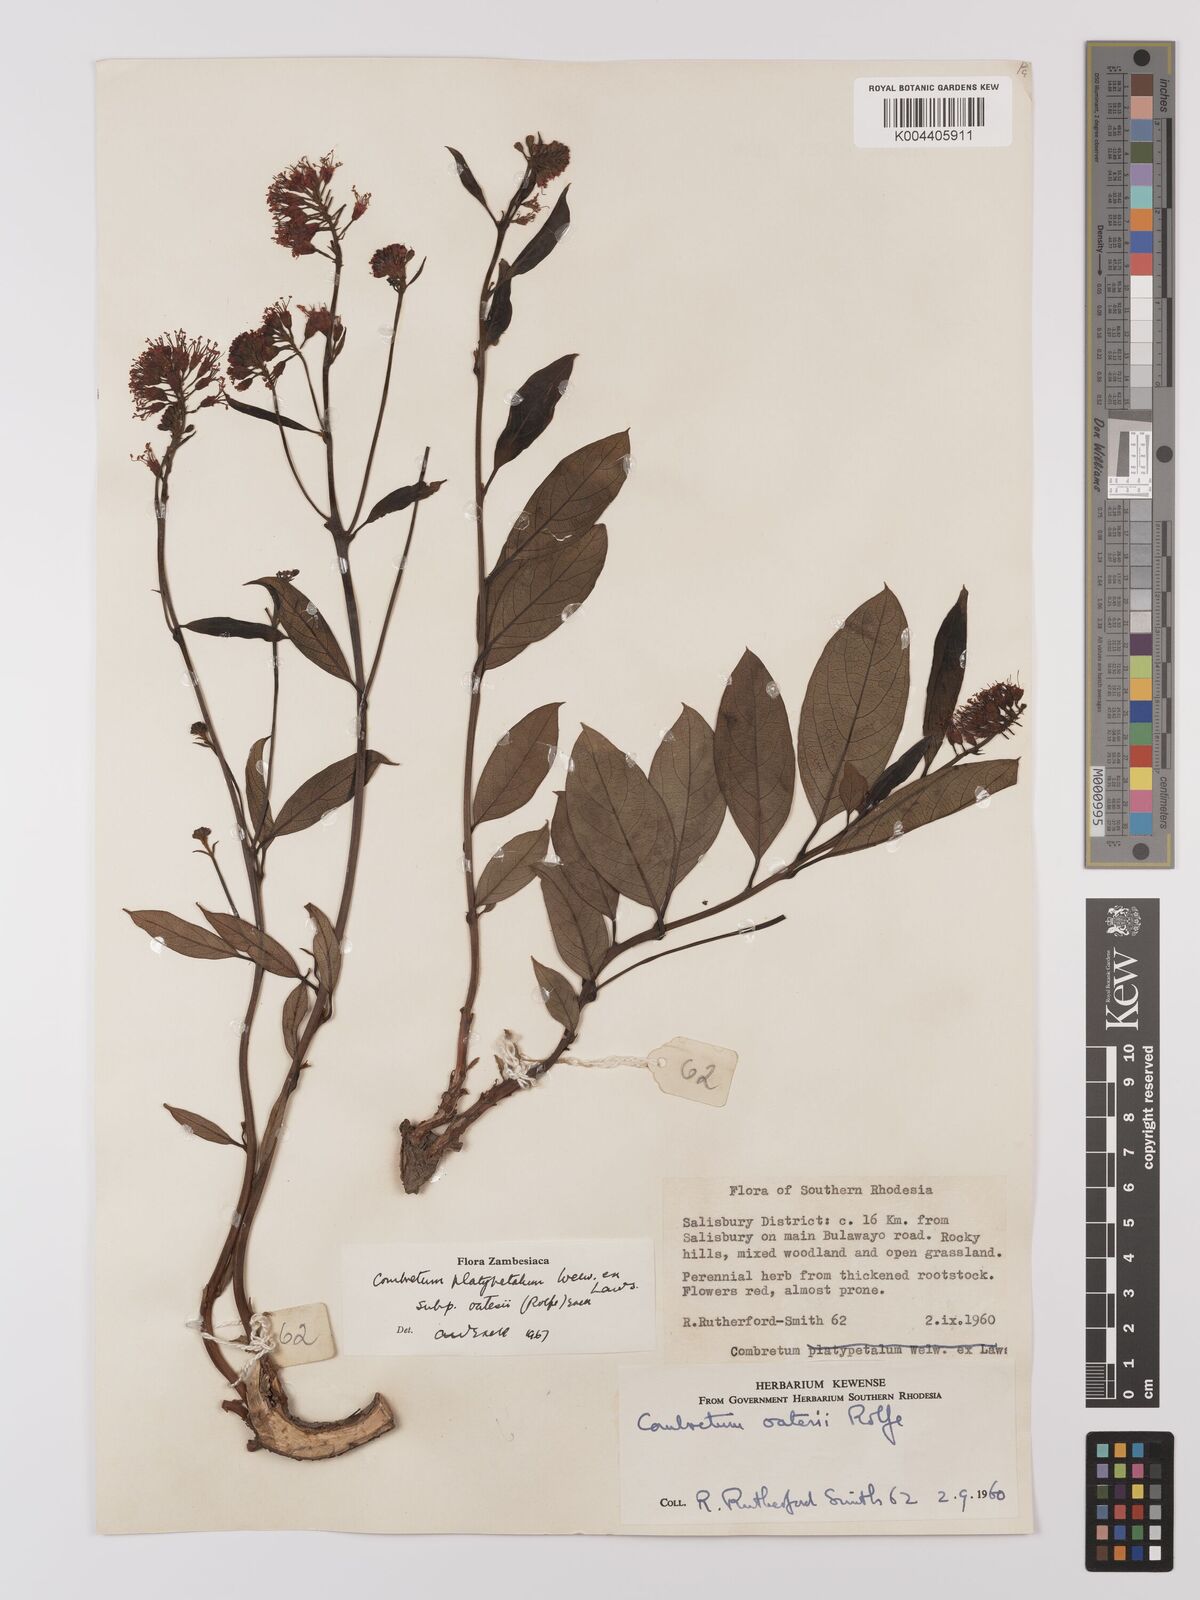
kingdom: Plantae
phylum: Tracheophyta
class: Magnoliopsida
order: Myrtales
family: Combretaceae
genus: Combretum
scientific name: Combretum platypetalum
